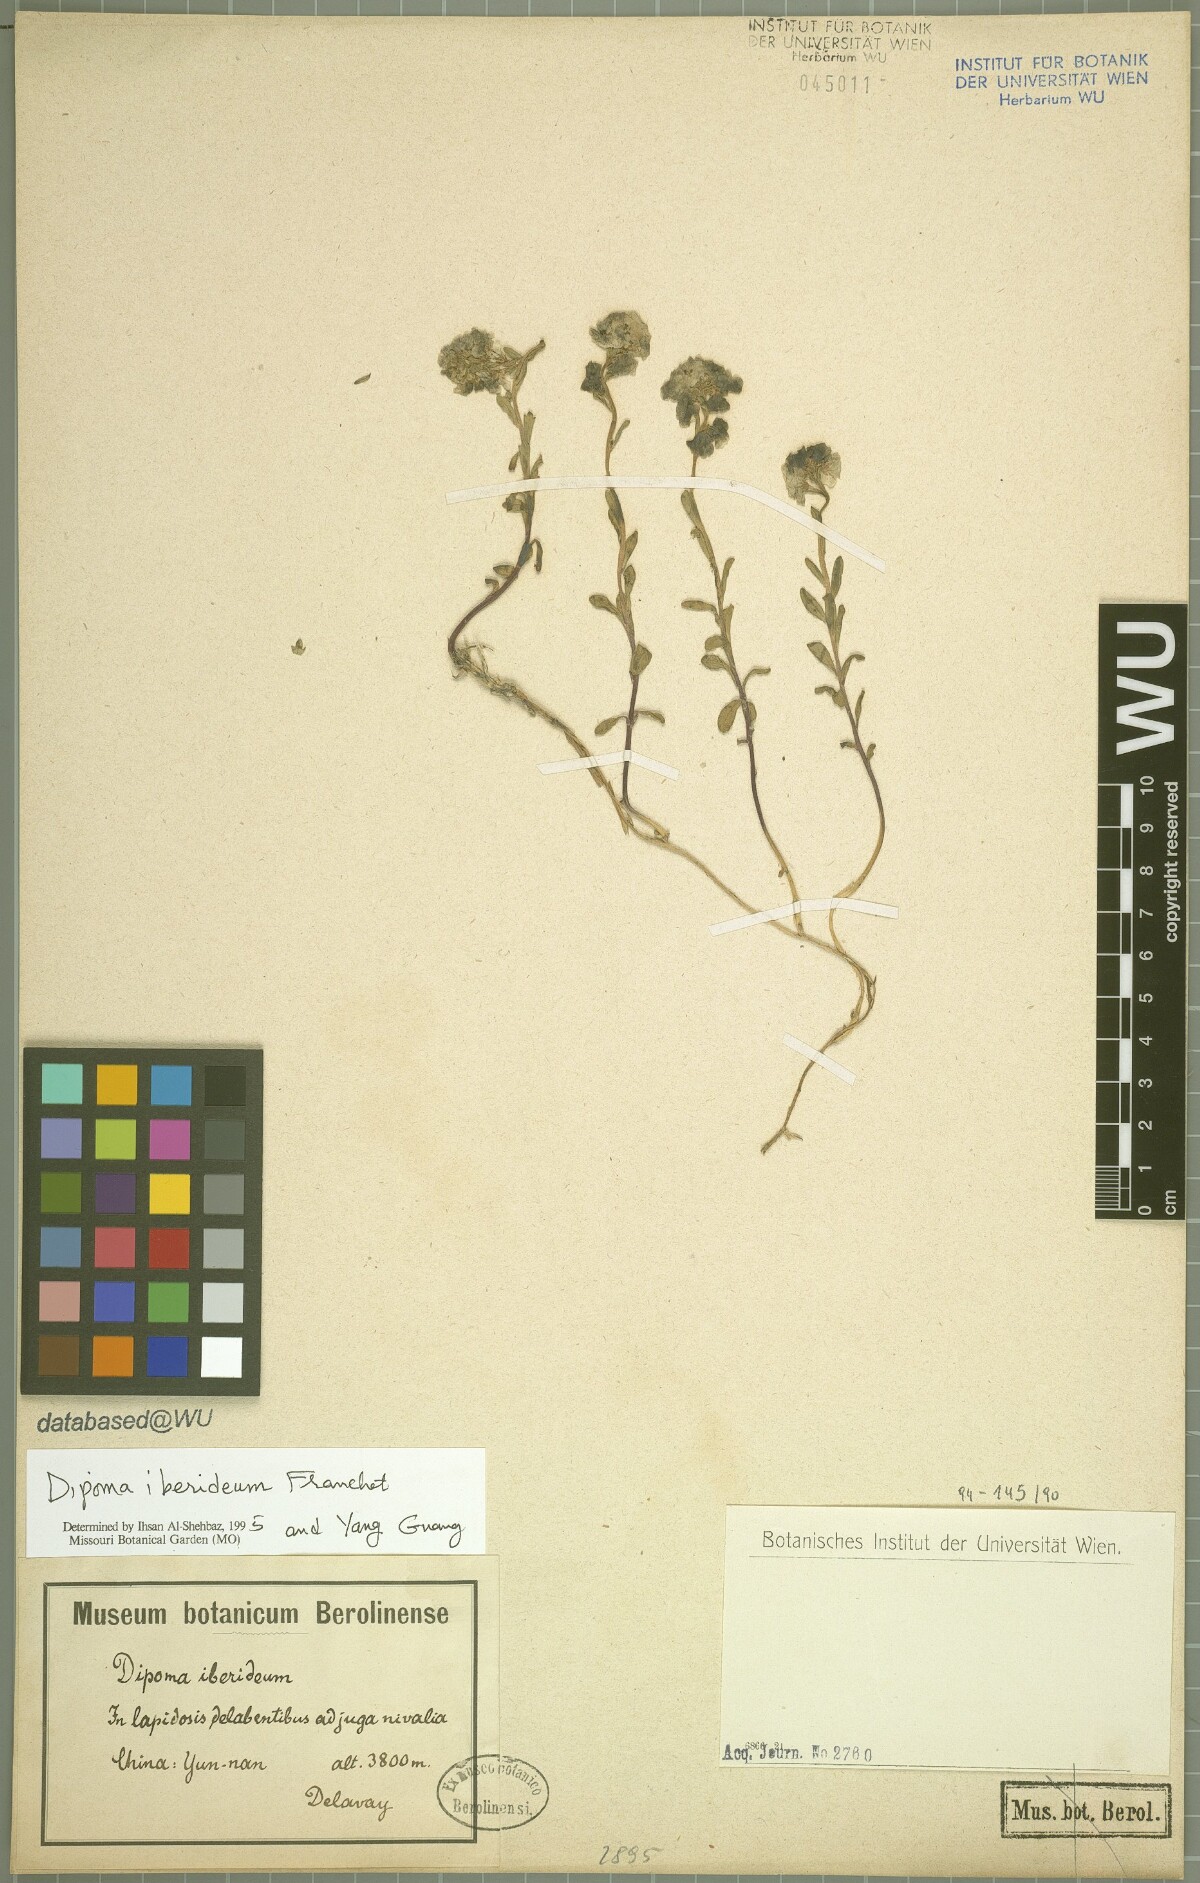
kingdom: Plantae
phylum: Tracheophyta
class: Magnoliopsida
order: Brassicales
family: Brassicaceae
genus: Dipoma
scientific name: Dipoma iberideum
